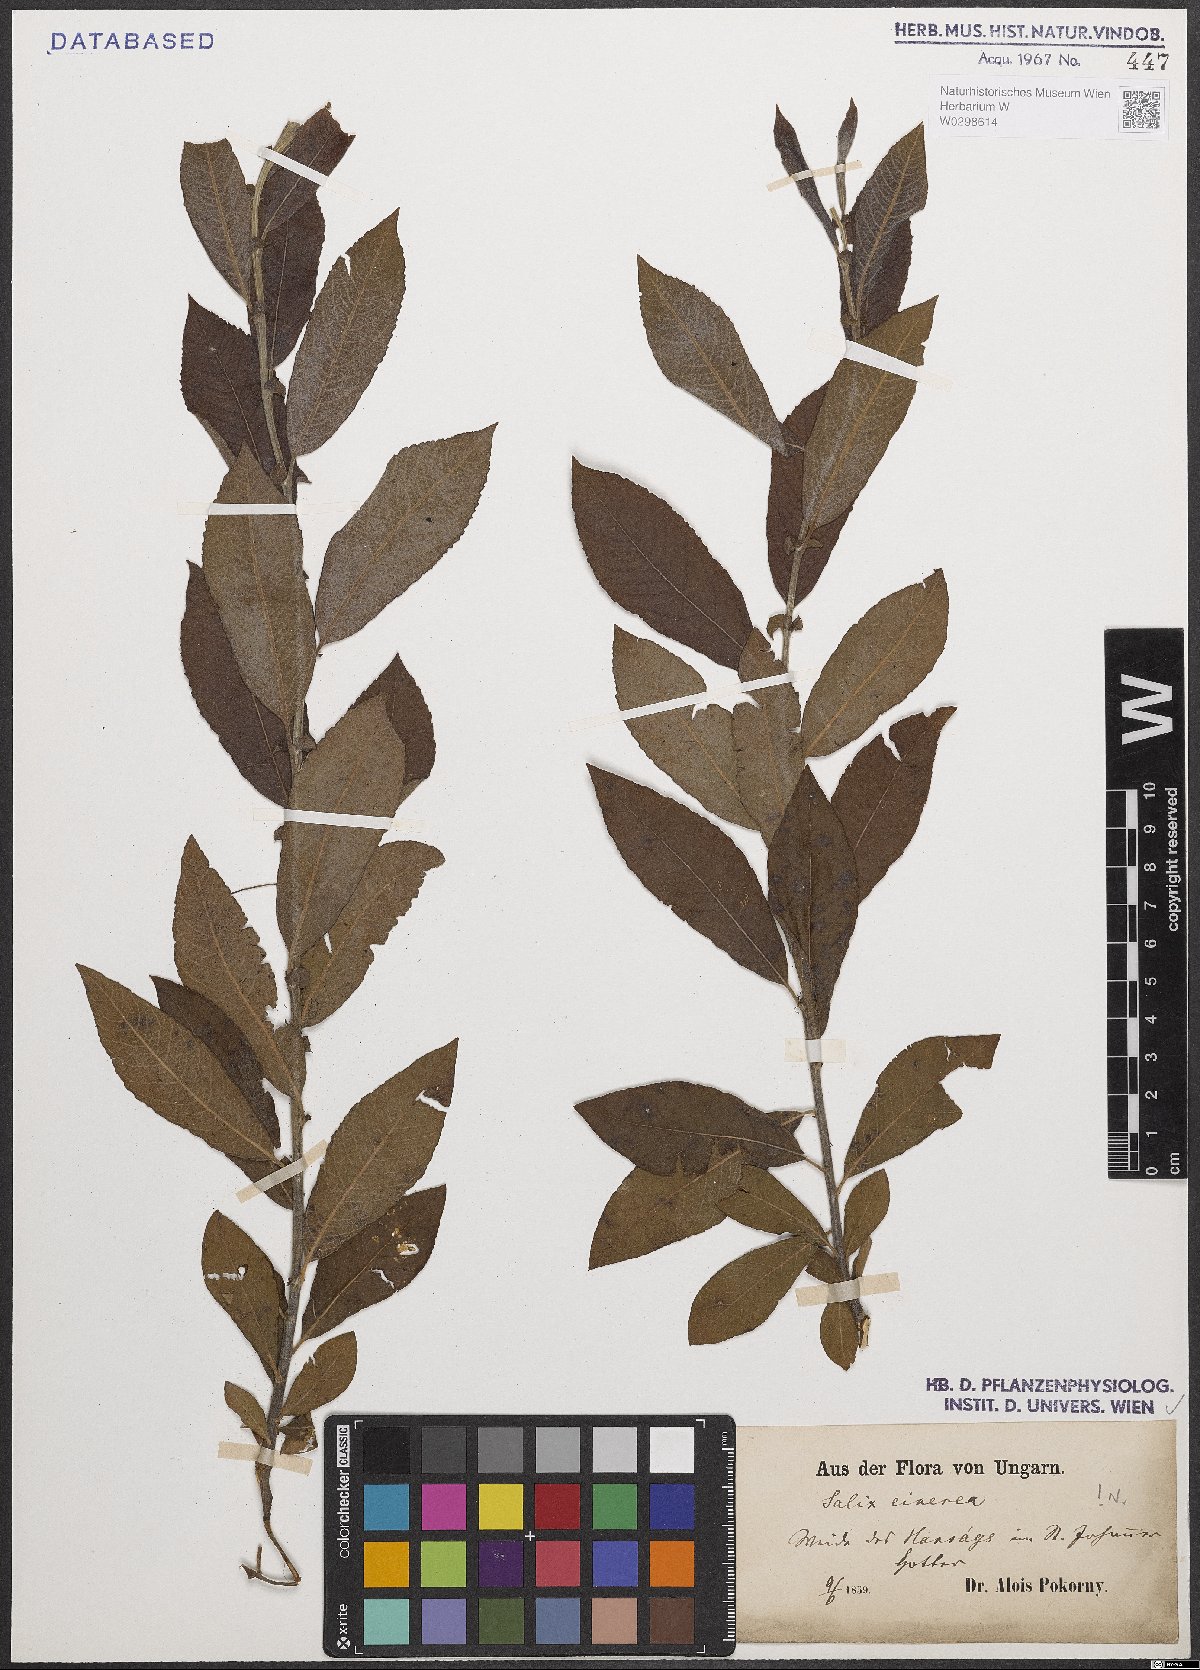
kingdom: Plantae
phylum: Tracheophyta
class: Magnoliopsida
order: Malpighiales
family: Salicaceae
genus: Salix
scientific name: Salix cinerea
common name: Common sallow
